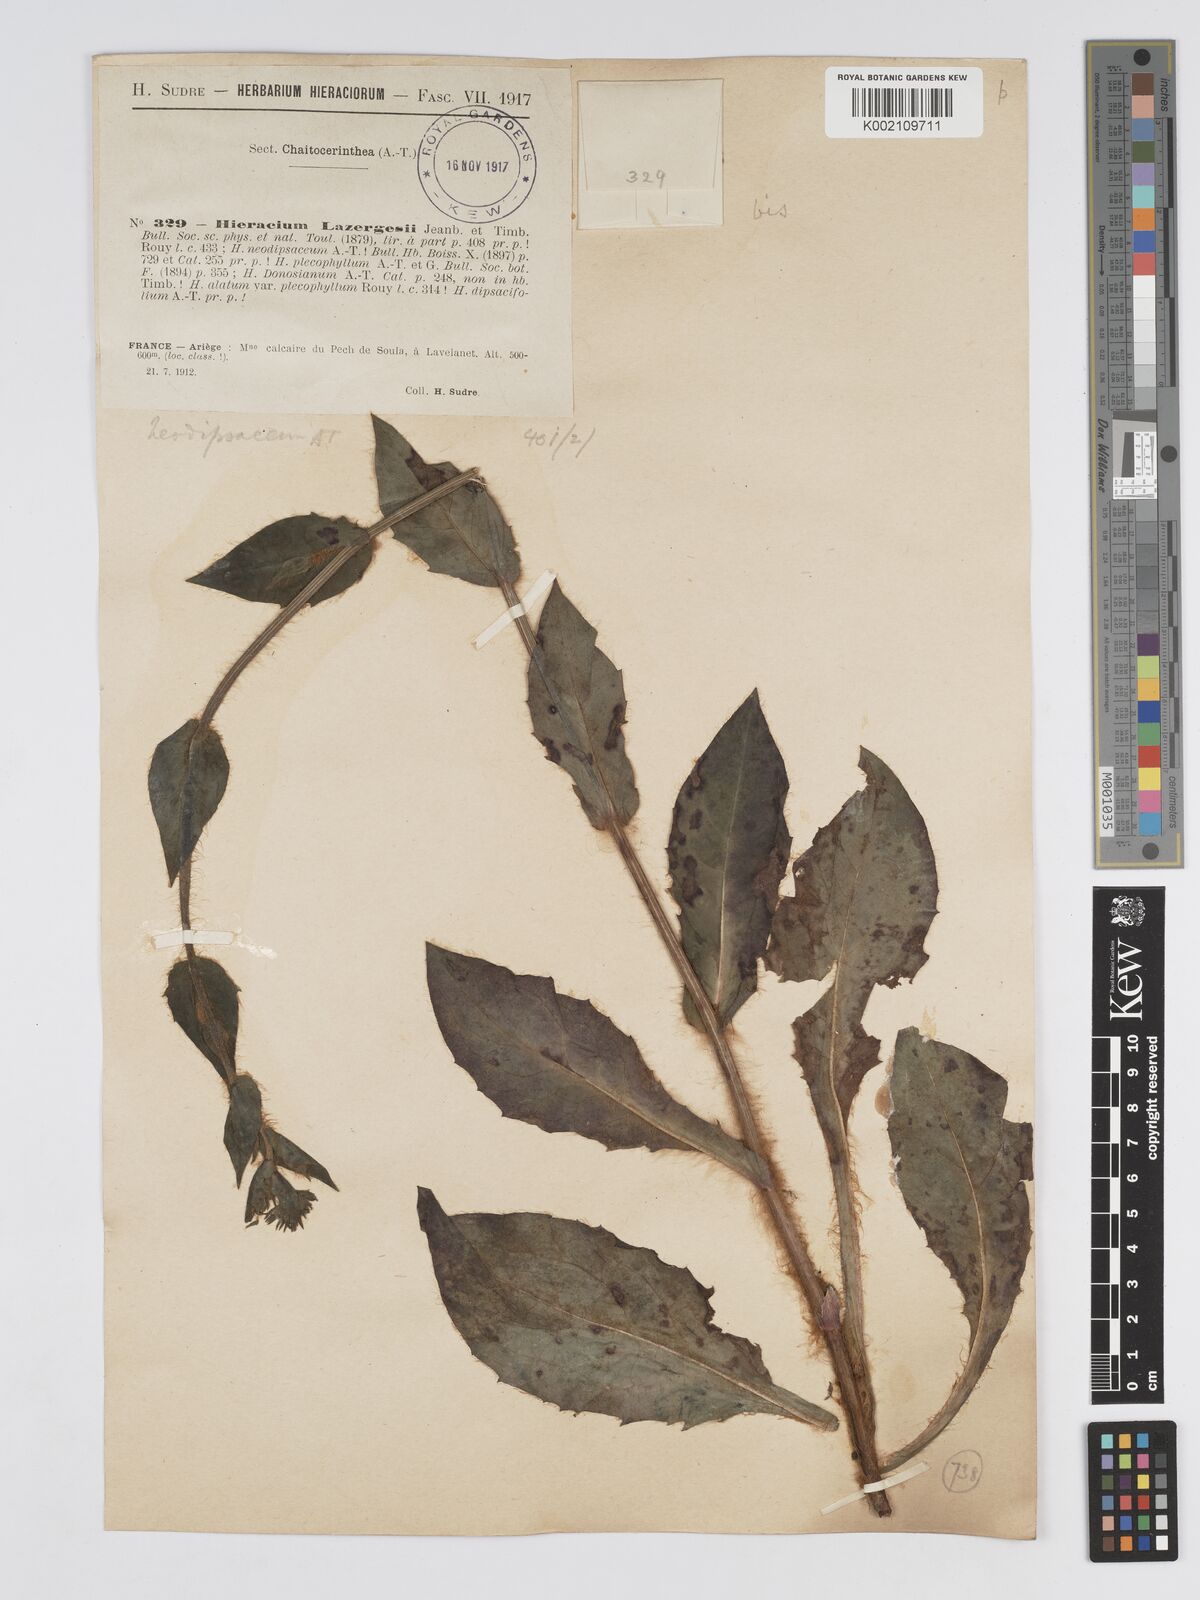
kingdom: Plantae
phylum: Tracheophyta
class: Magnoliopsida
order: Asterales
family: Asteraceae
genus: Hieracium
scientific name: Hieracium patens
